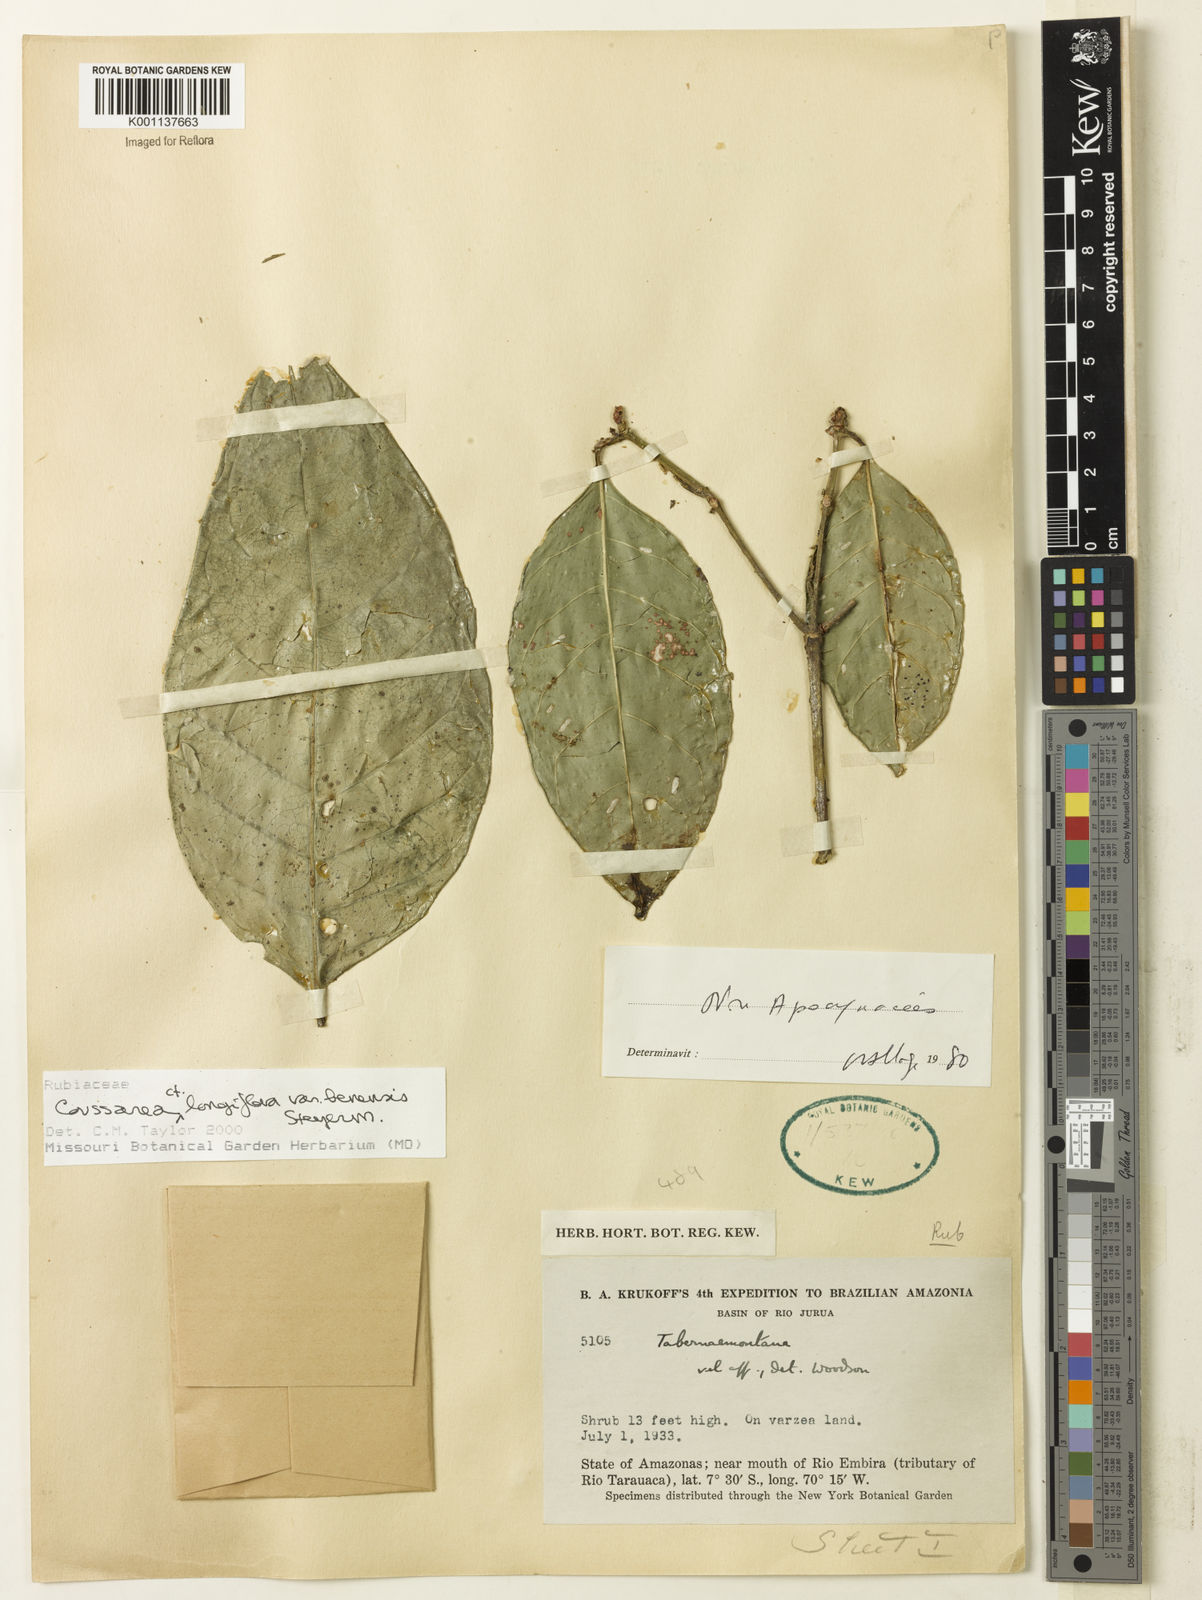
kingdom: Plantae
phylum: Tracheophyta
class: Magnoliopsida
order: Gentianales
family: Rubiaceae
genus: Coussarea
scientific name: Coussarea
